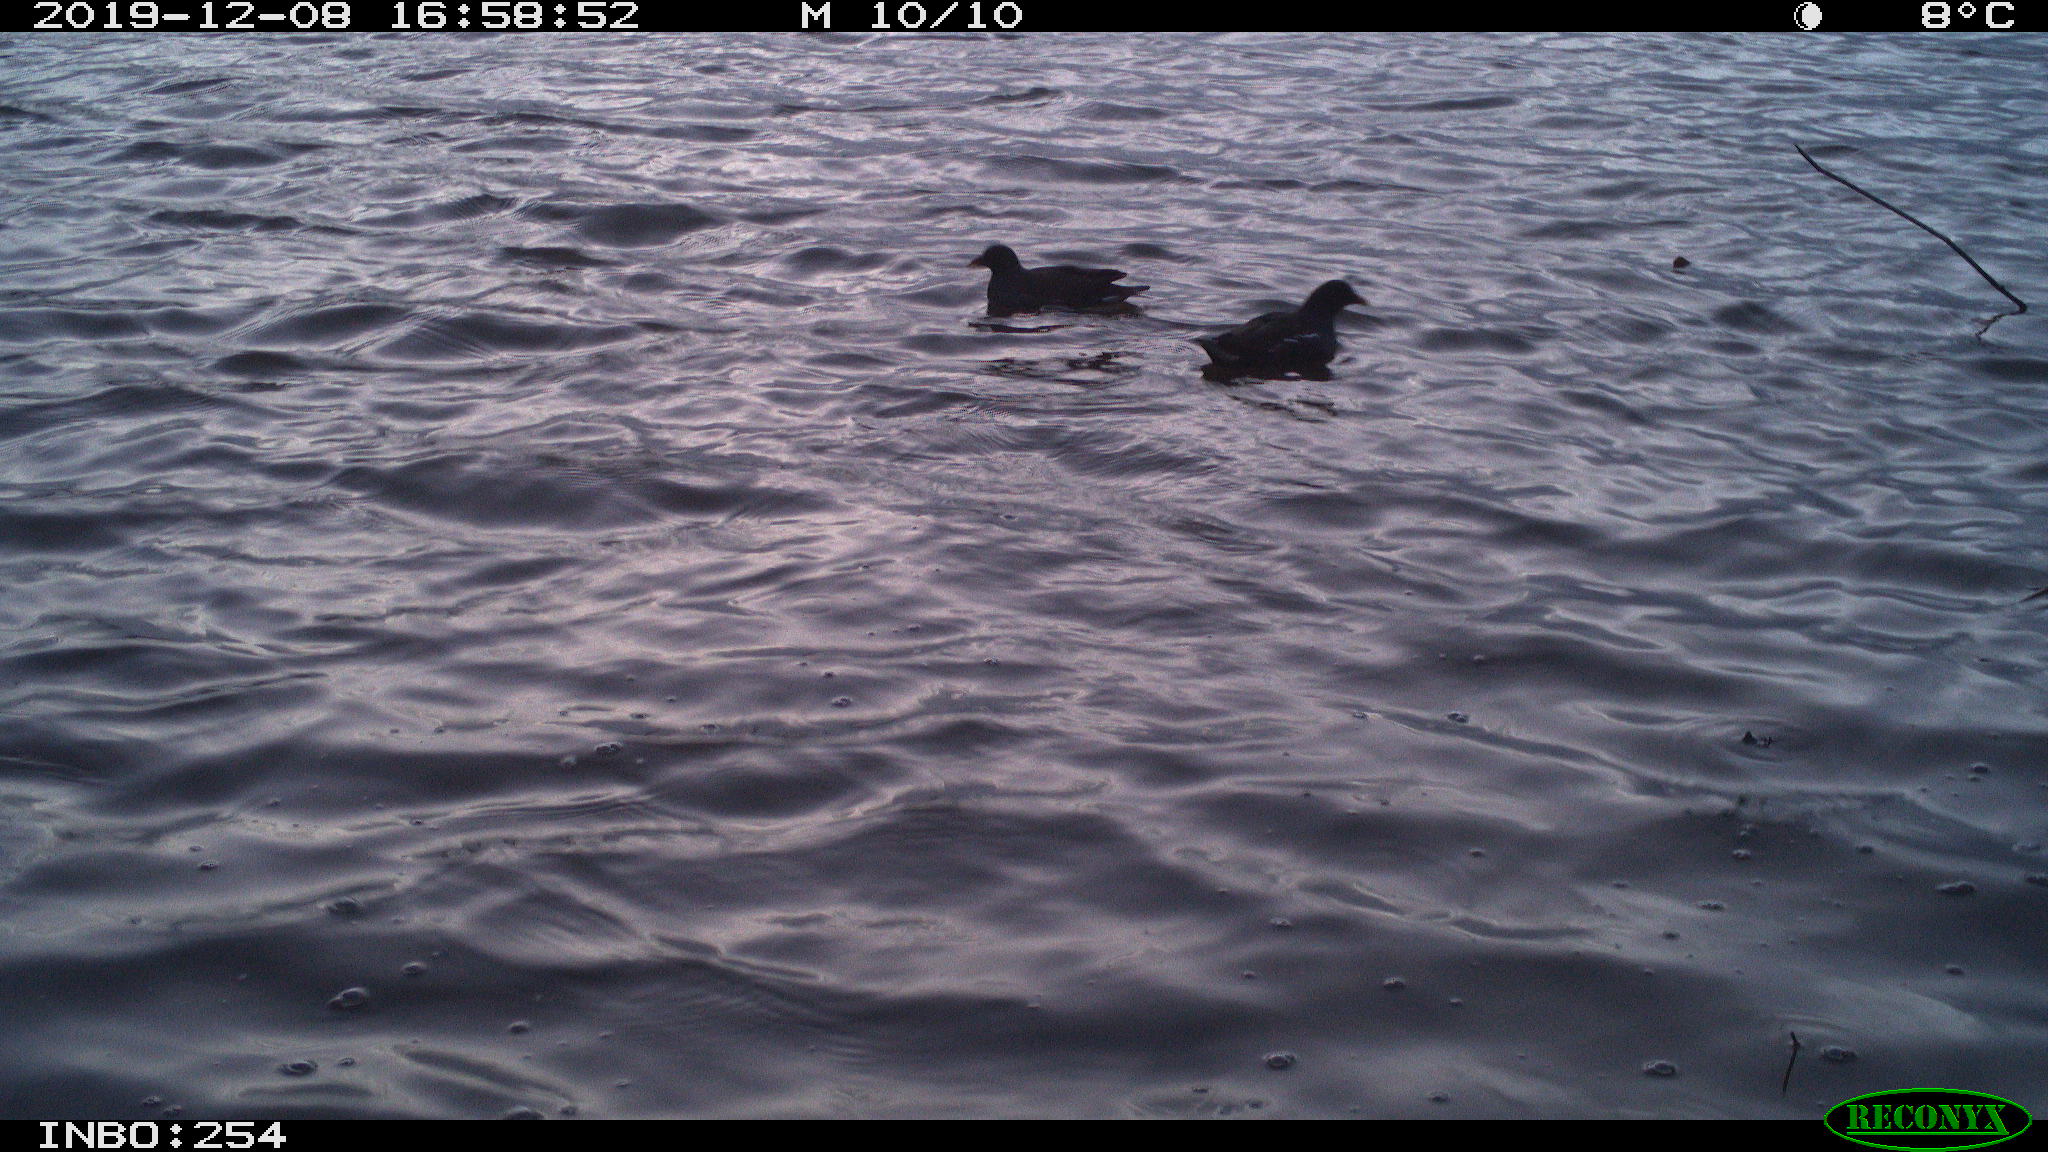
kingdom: Animalia
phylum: Chordata
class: Aves
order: Gruiformes
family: Rallidae
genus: Gallinula
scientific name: Gallinula chloropus
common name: Common moorhen
